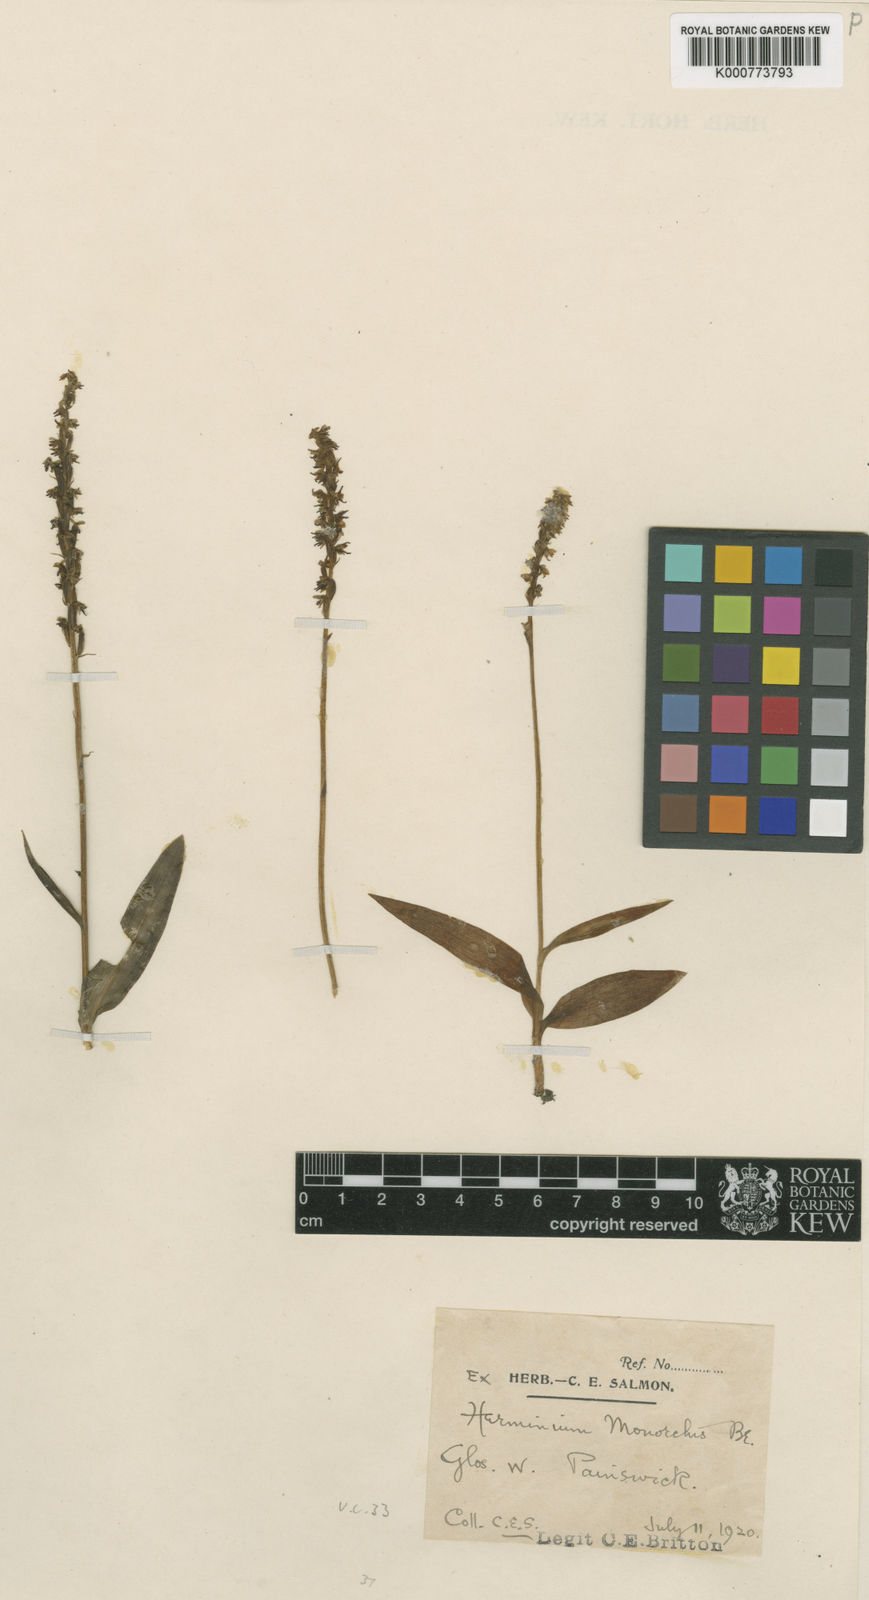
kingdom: Plantae
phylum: Tracheophyta
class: Liliopsida
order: Asparagales
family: Orchidaceae
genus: Herminium
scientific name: Herminium monorchis
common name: Musk orchid
